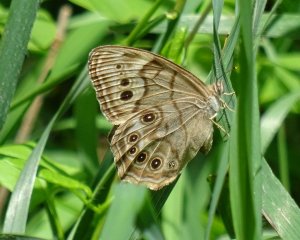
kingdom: Animalia
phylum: Arthropoda
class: Insecta
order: Lepidoptera
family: Nymphalidae
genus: Lethe
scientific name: Lethe anthedon
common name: Northern Pearly-Eye
